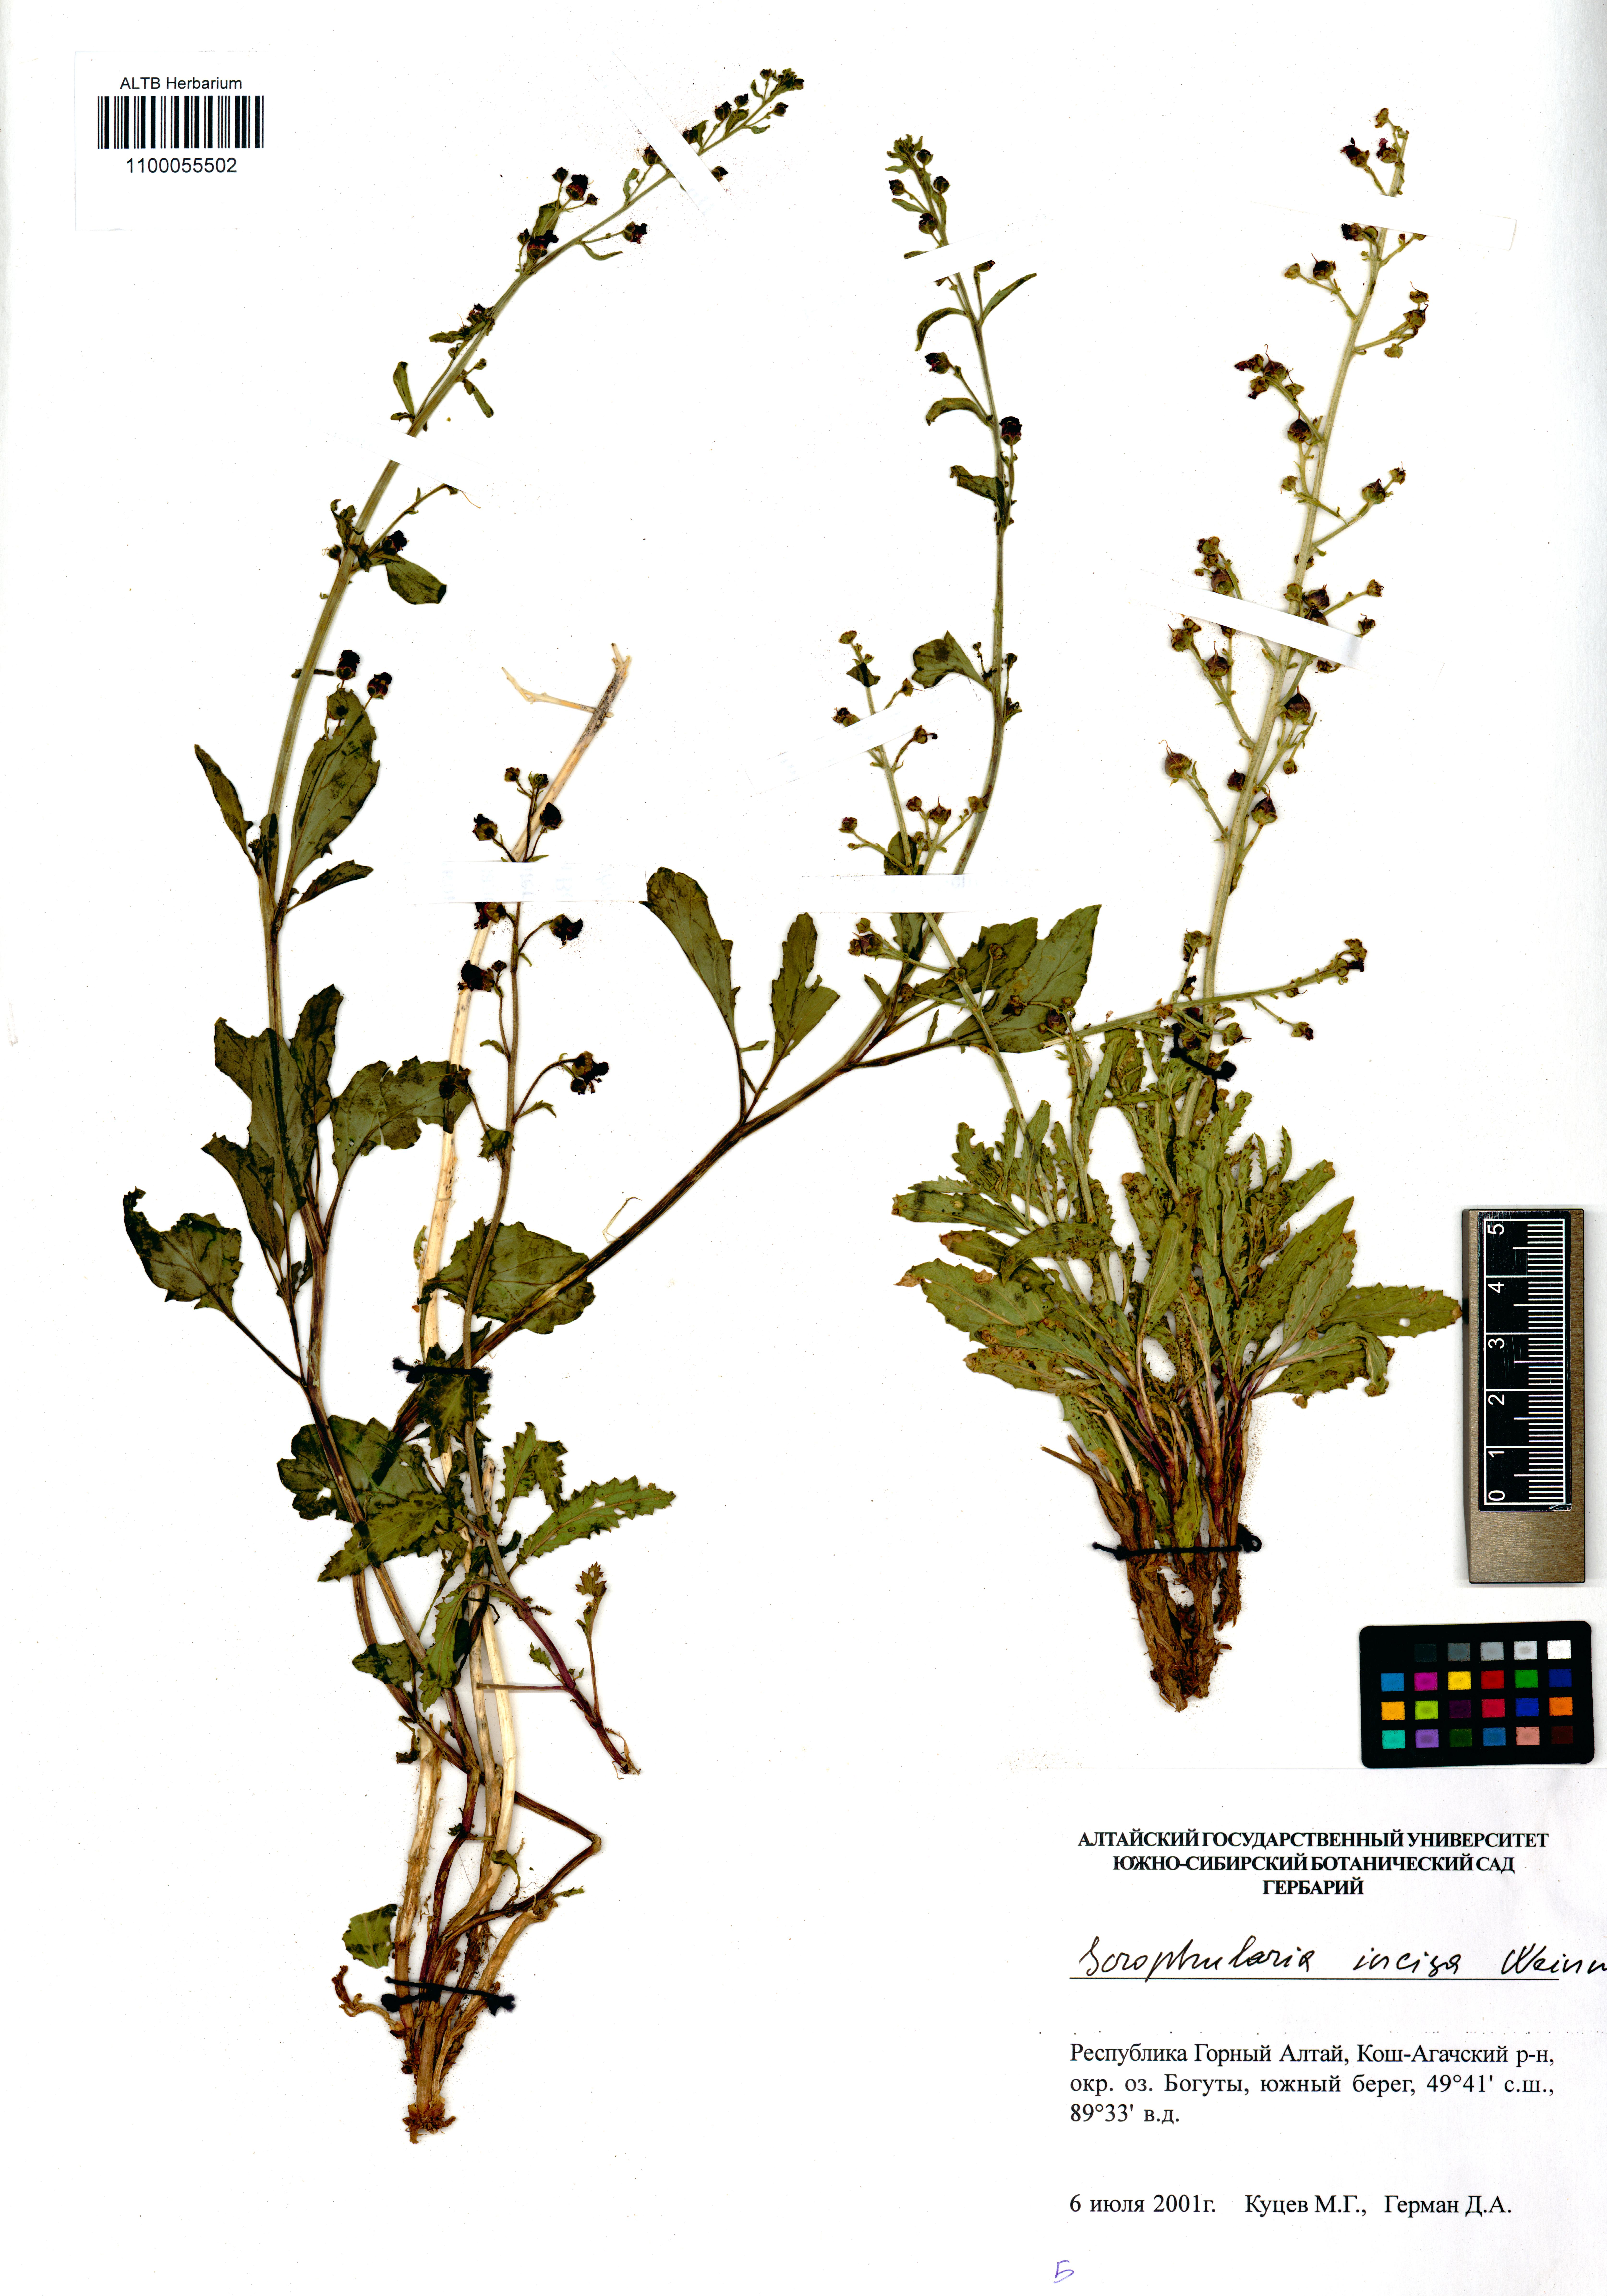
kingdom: Plantae
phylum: Tracheophyta
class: Magnoliopsida
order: Lamiales
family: Scrophulariaceae
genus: Scrophularia
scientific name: Scrophularia incisa
